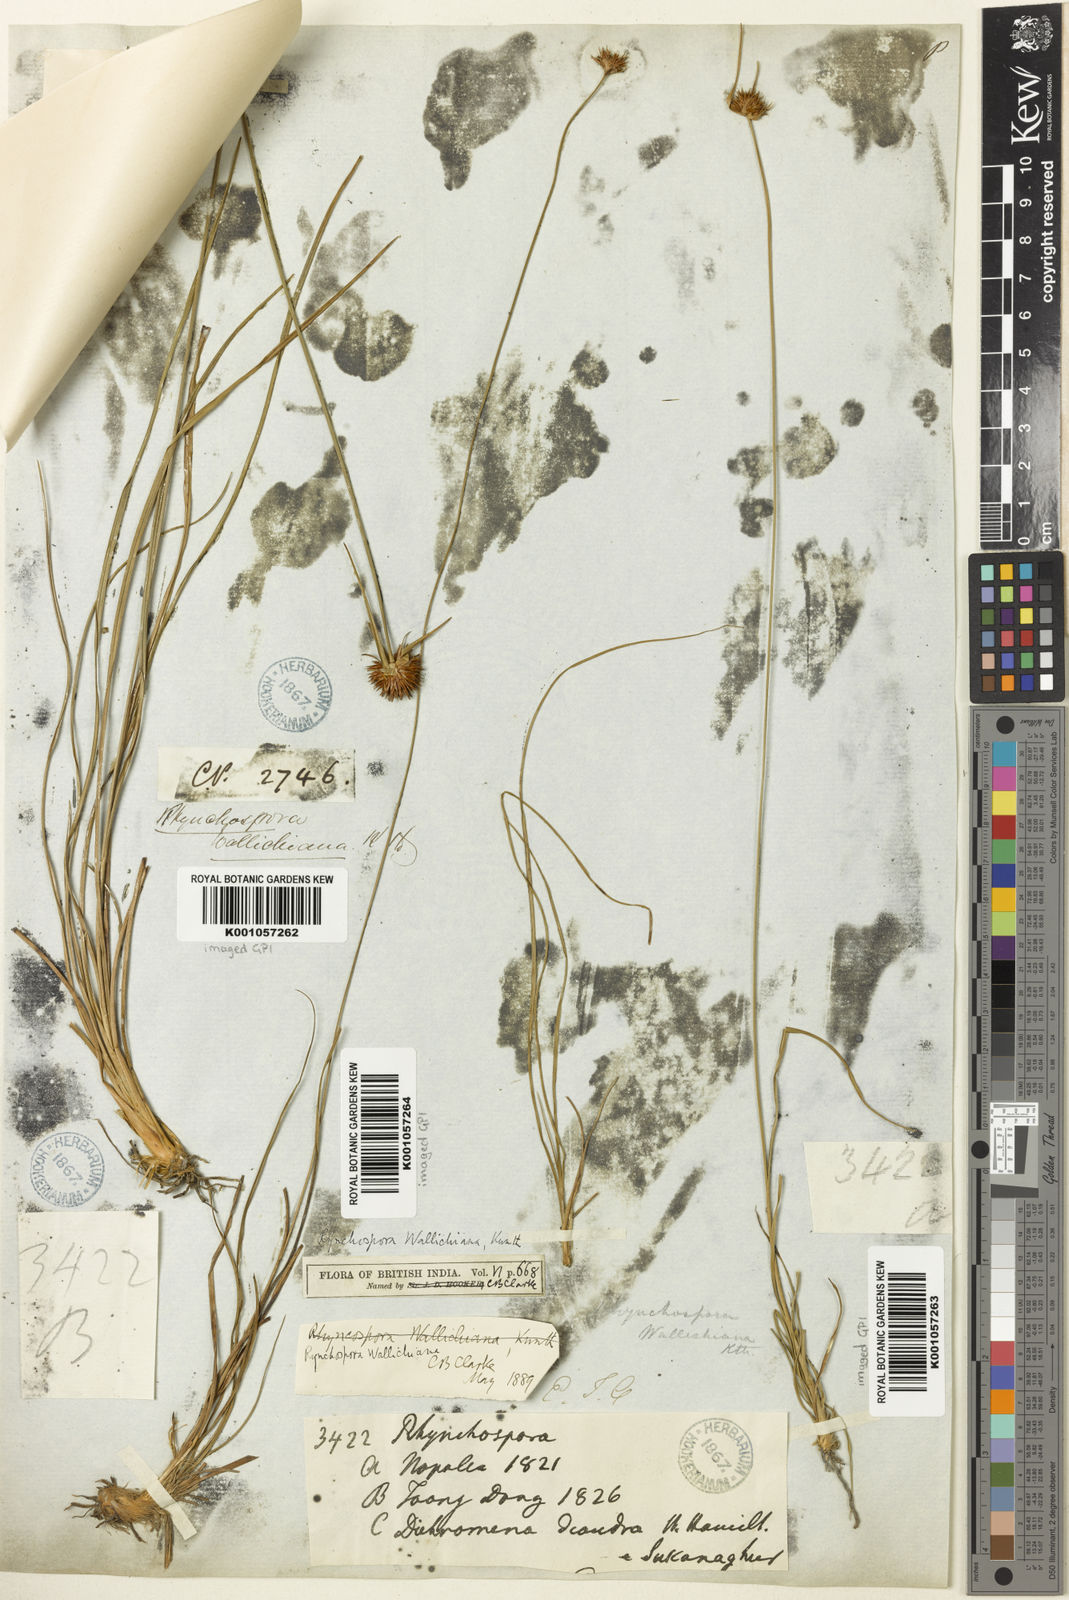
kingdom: Plantae
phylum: Tracheophyta
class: Liliopsida
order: Poales
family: Cyperaceae
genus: Rhynchospora
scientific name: Rhynchospora rubra
